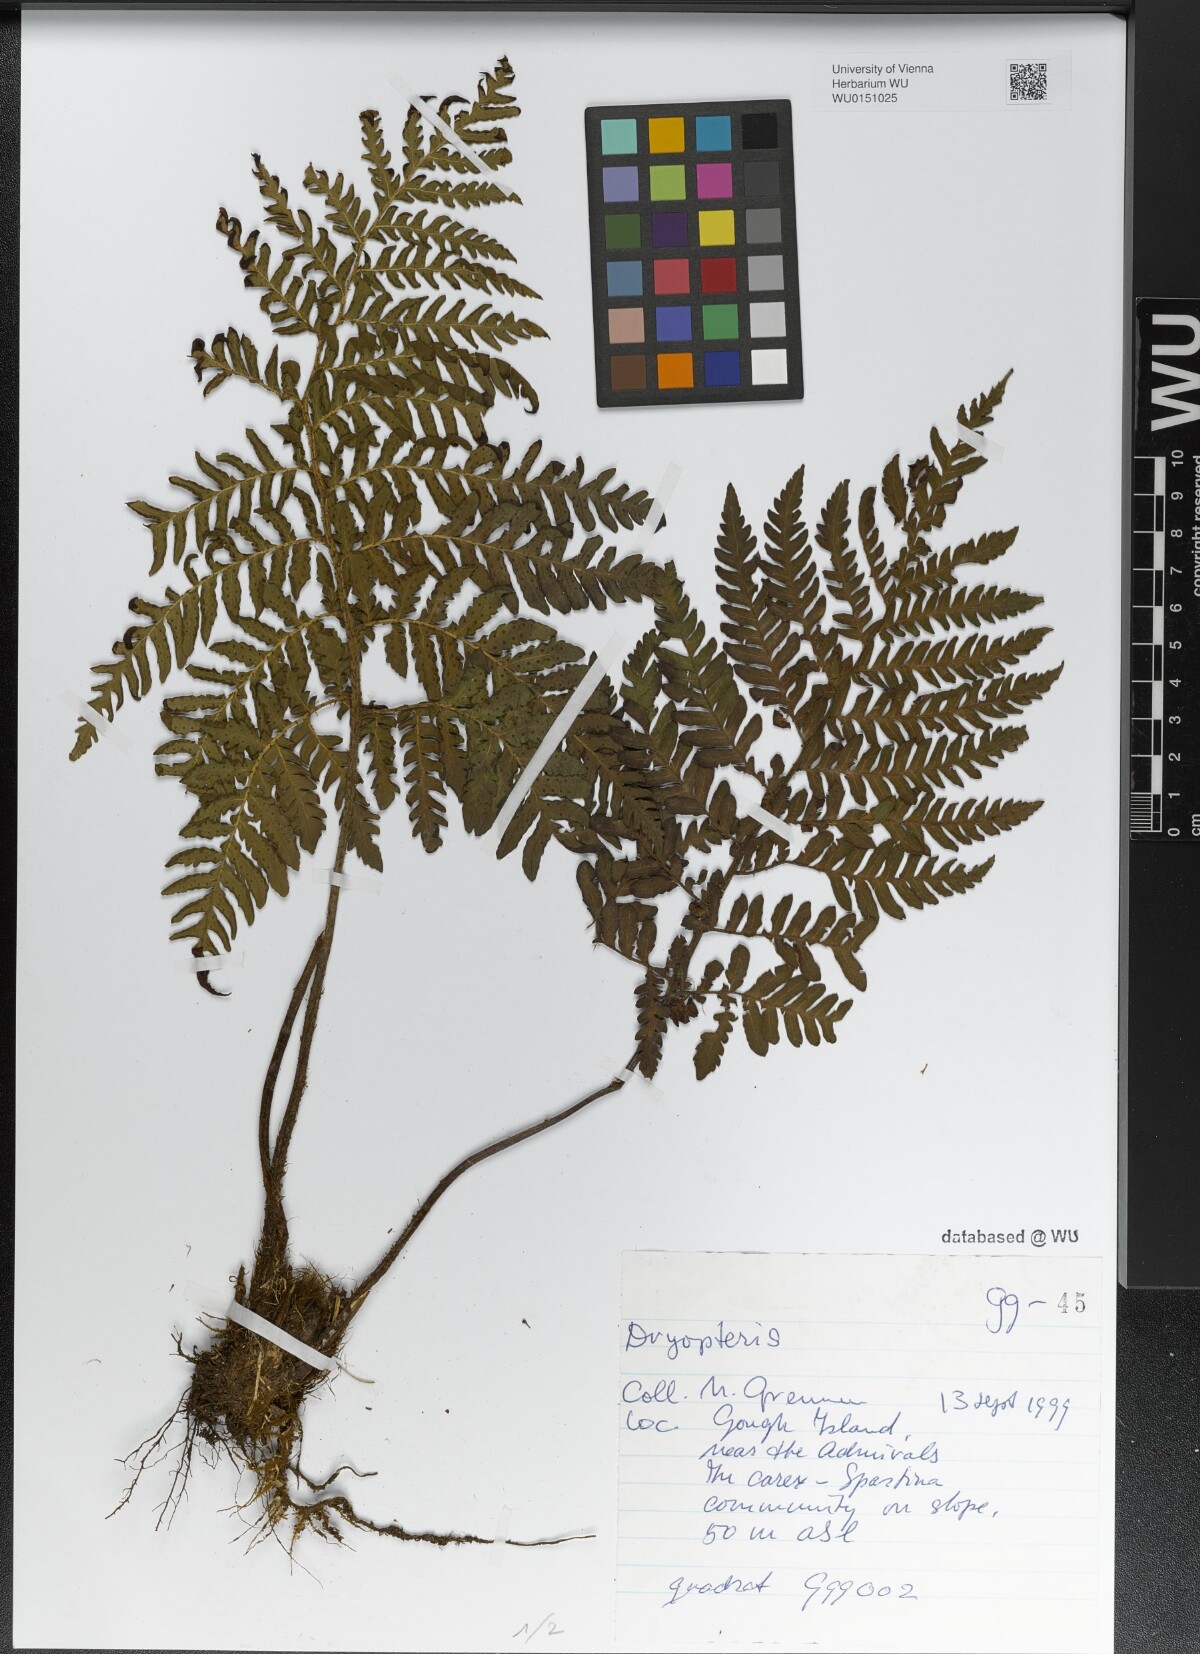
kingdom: Plantae
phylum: Tracheophyta
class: Polypodiopsida
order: Polypodiales
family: Dryopteridaceae
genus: Dryopteris
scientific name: Dryopteris
